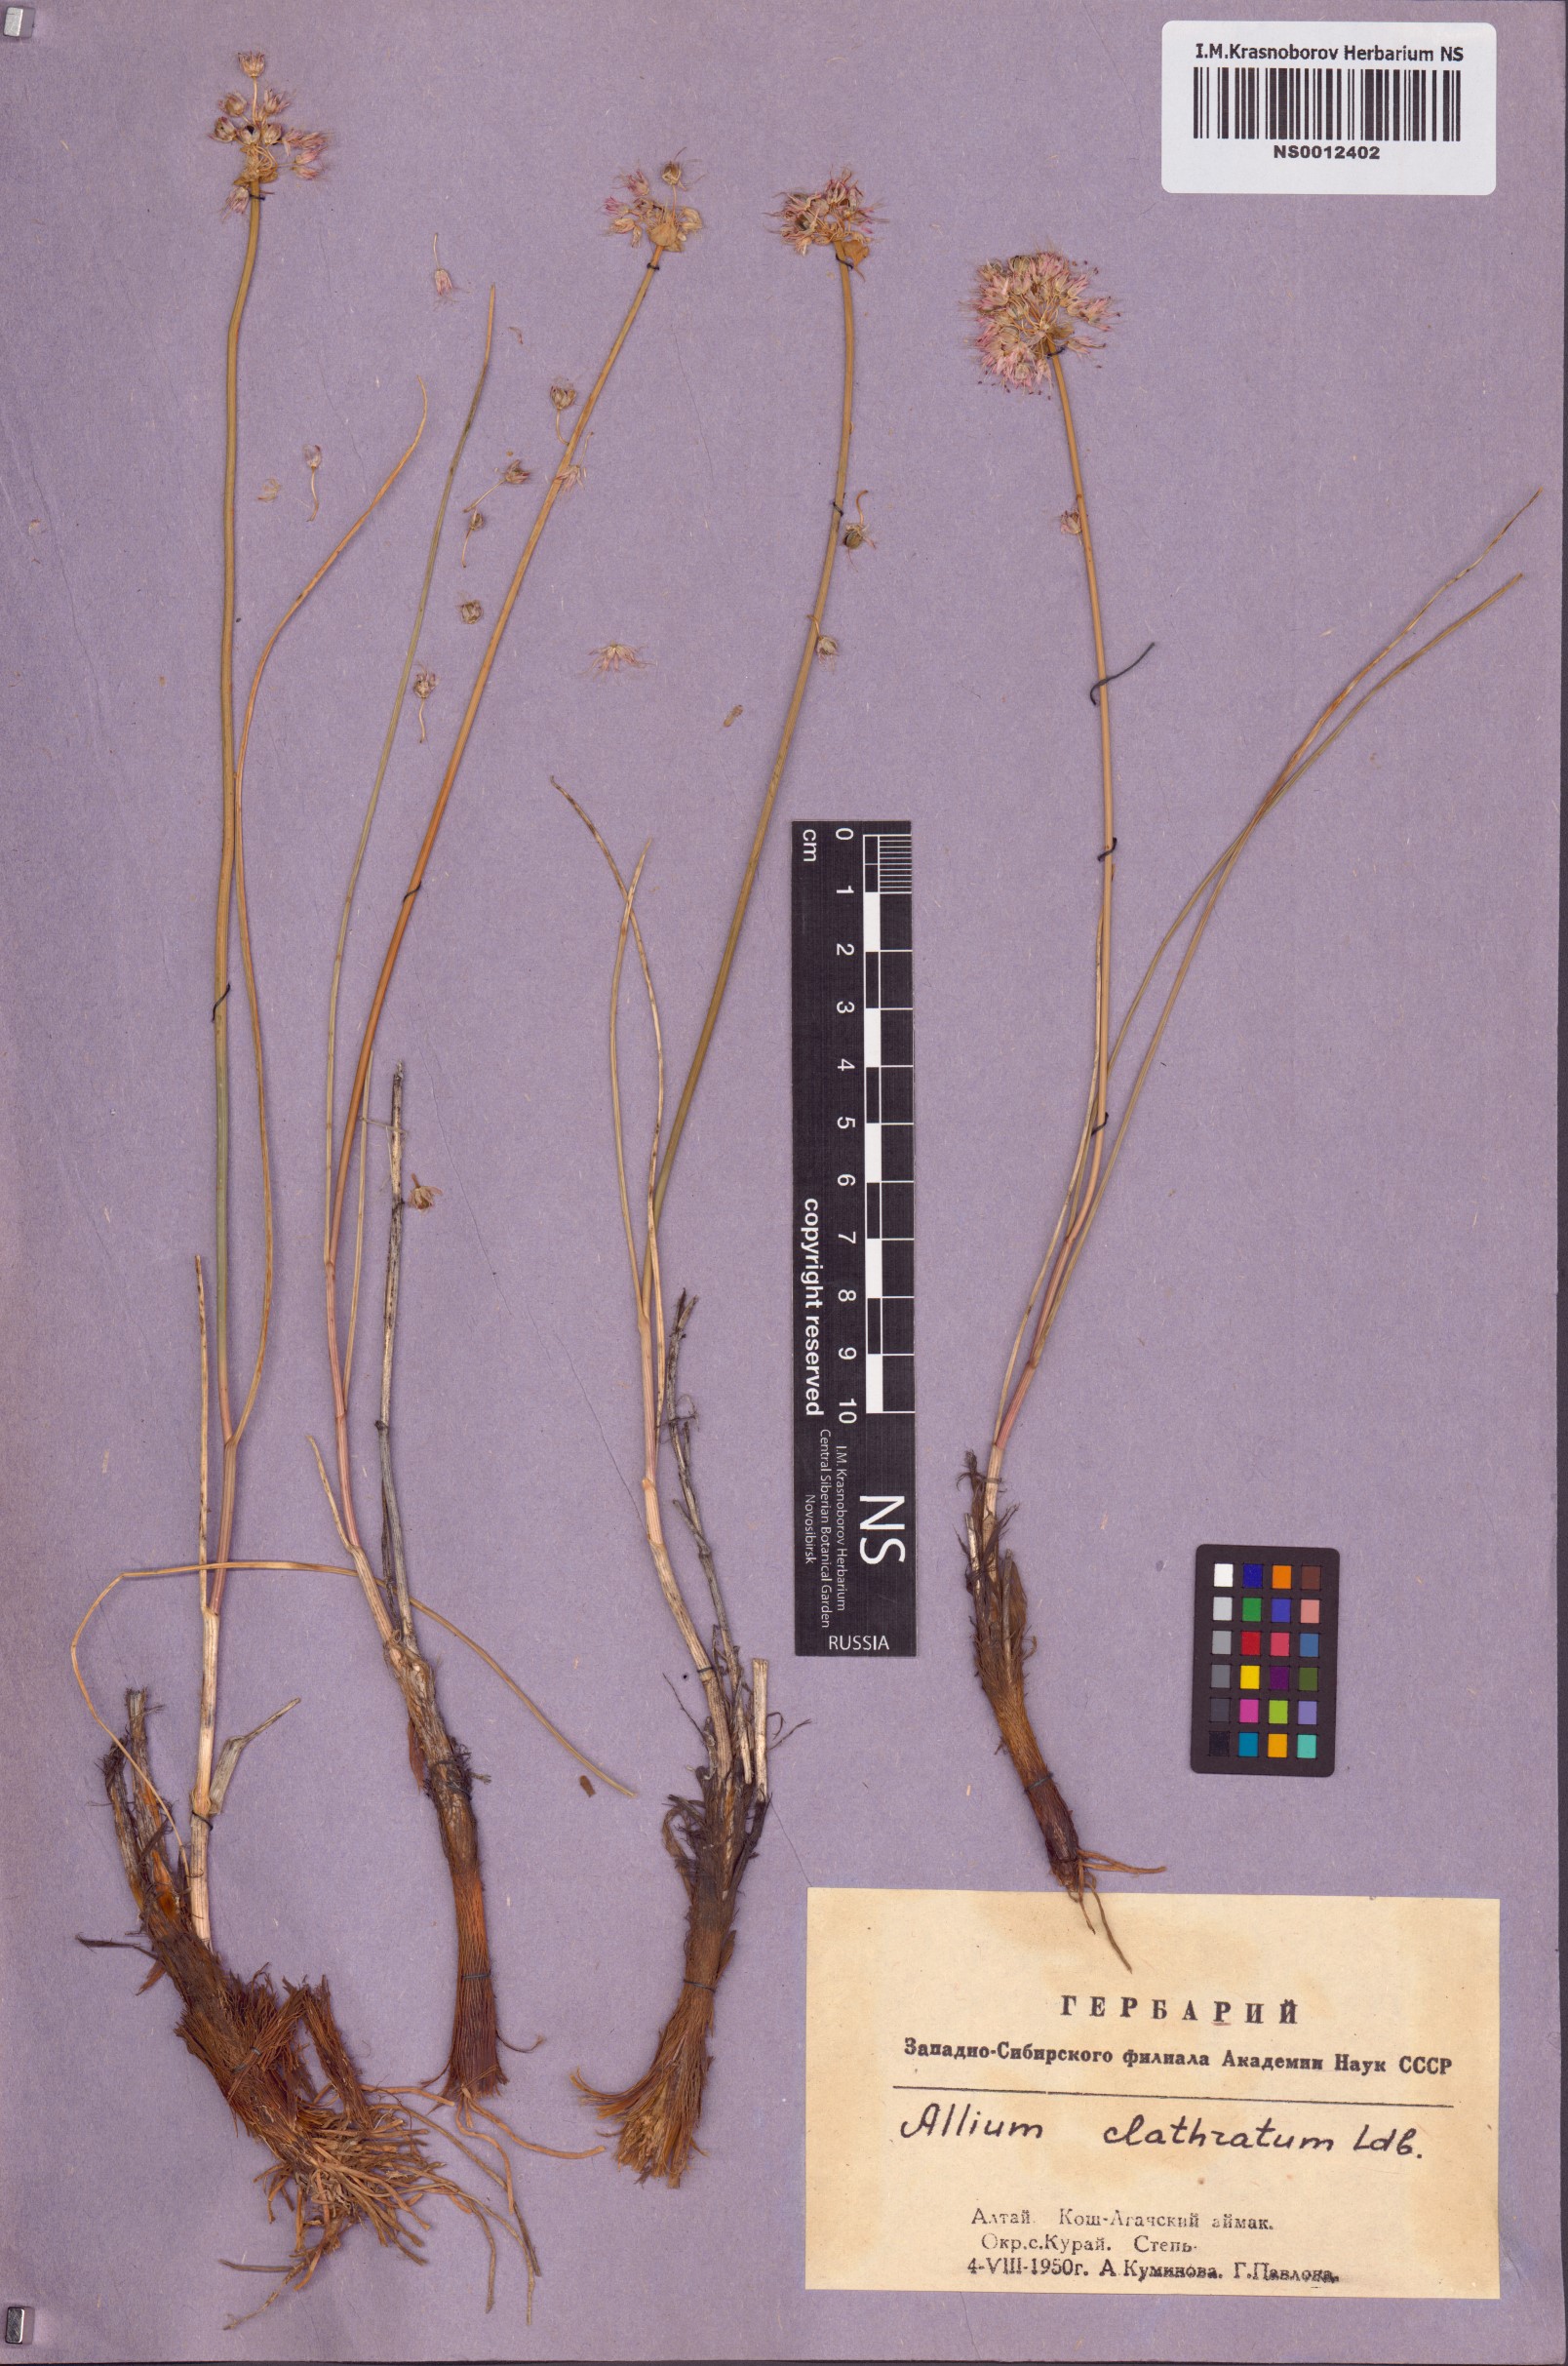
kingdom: Plantae
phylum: Tracheophyta
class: Liliopsida
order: Asparagales
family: Amaryllidaceae
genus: Allium
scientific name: Allium clathratum
